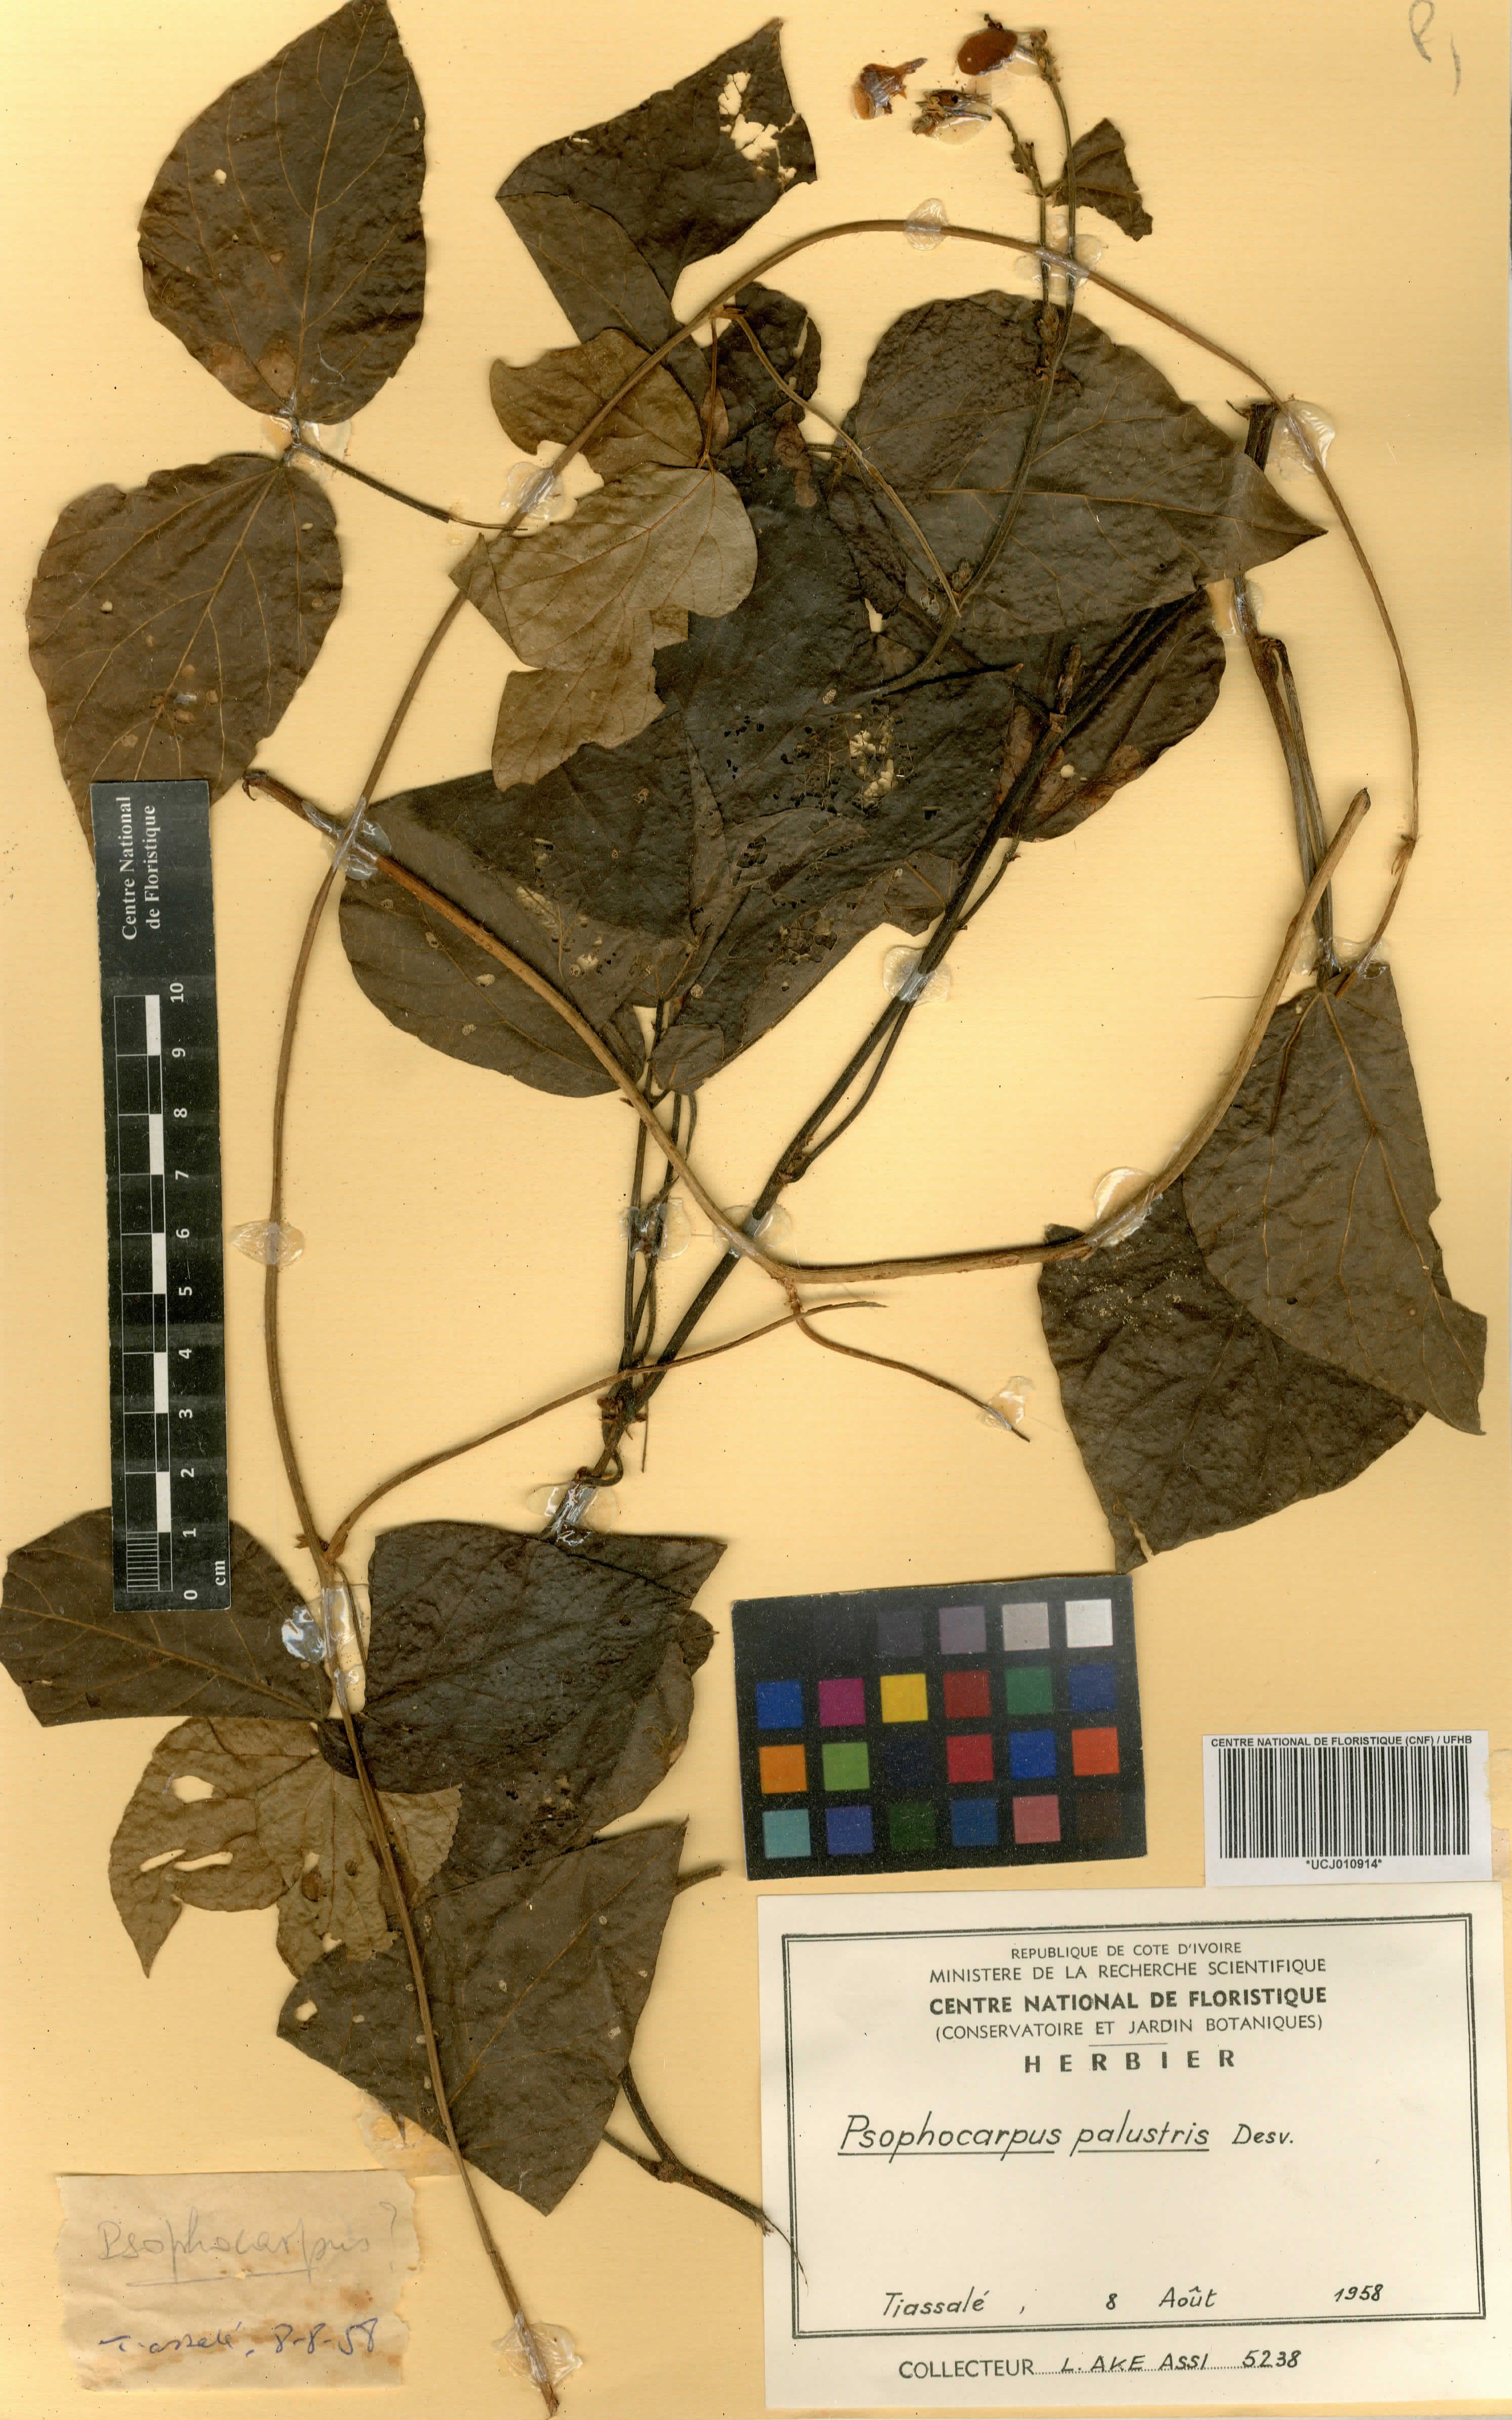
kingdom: Plantae
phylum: Tracheophyta
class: Magnoliopsida
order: Fabales
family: Fabaceae
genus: Psophocarpus
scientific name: Psophocarpus palustris
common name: African winged-bean
